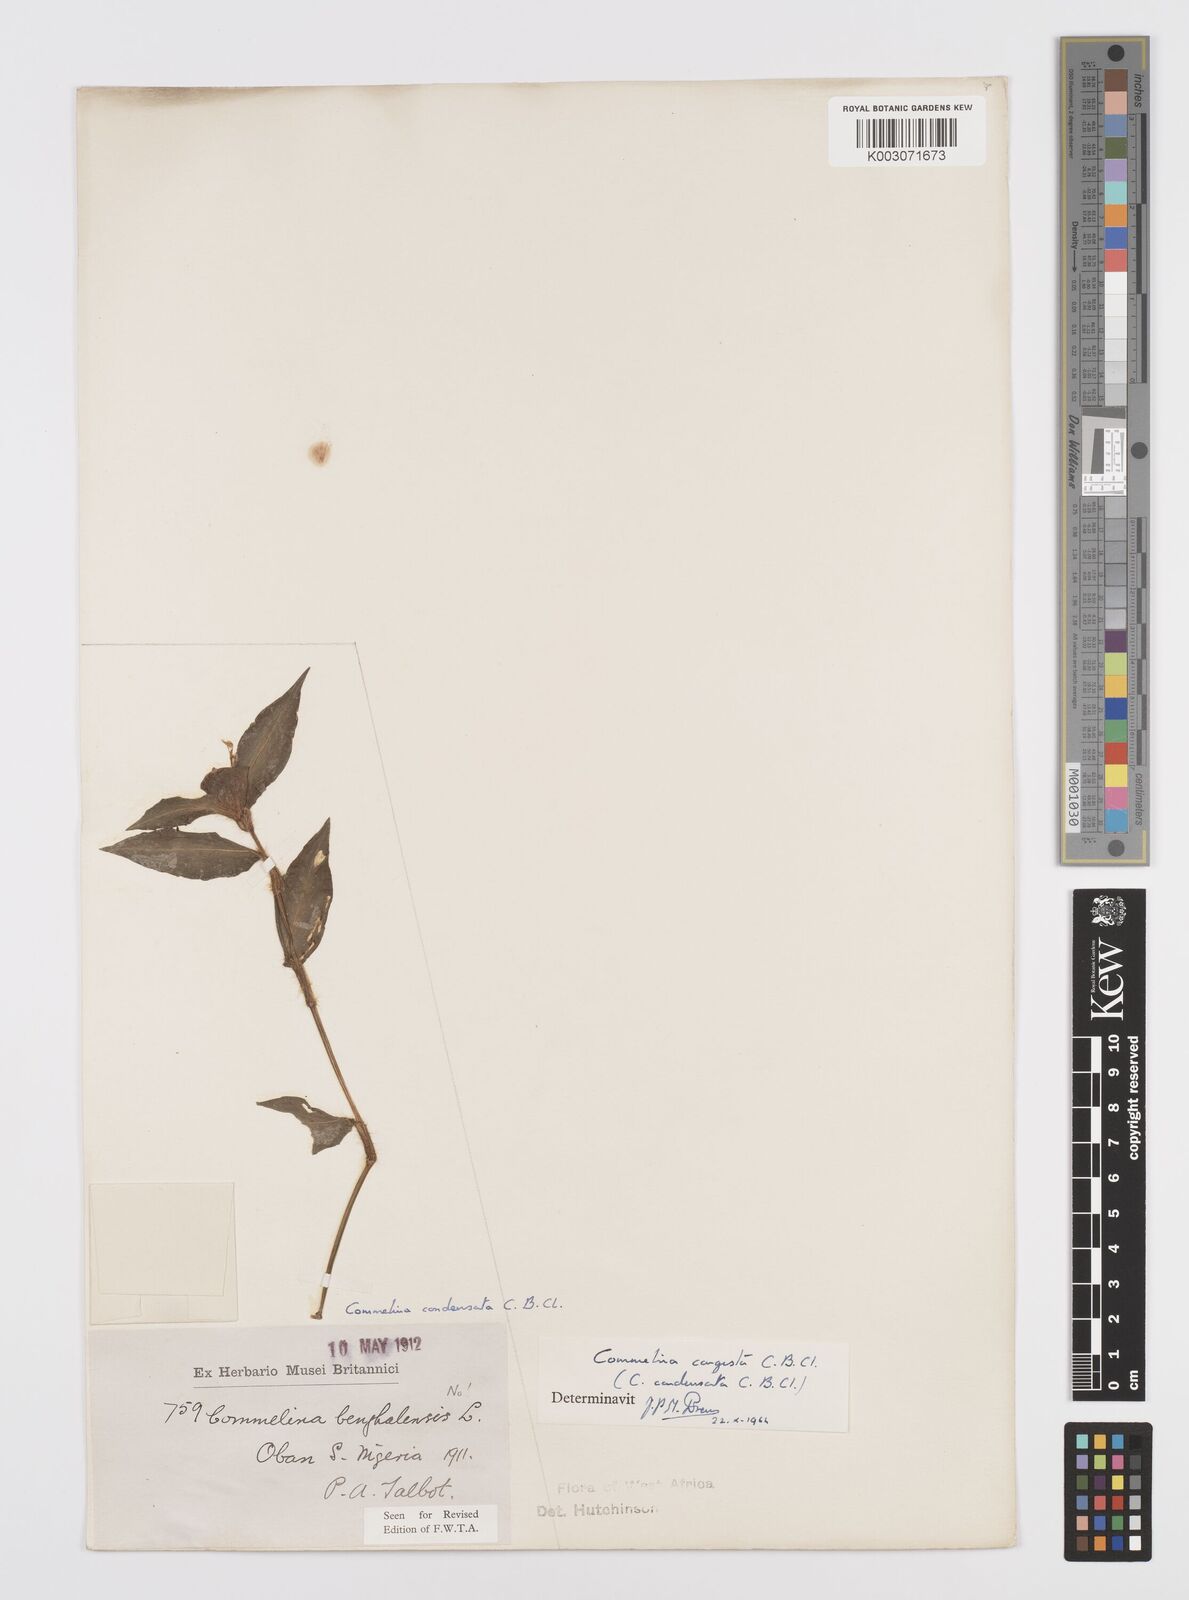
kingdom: Plantae
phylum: Tracheophyta
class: Liliopsida
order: Commelinales
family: Commelinaceae
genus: Commelina
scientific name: Commelina congesta
